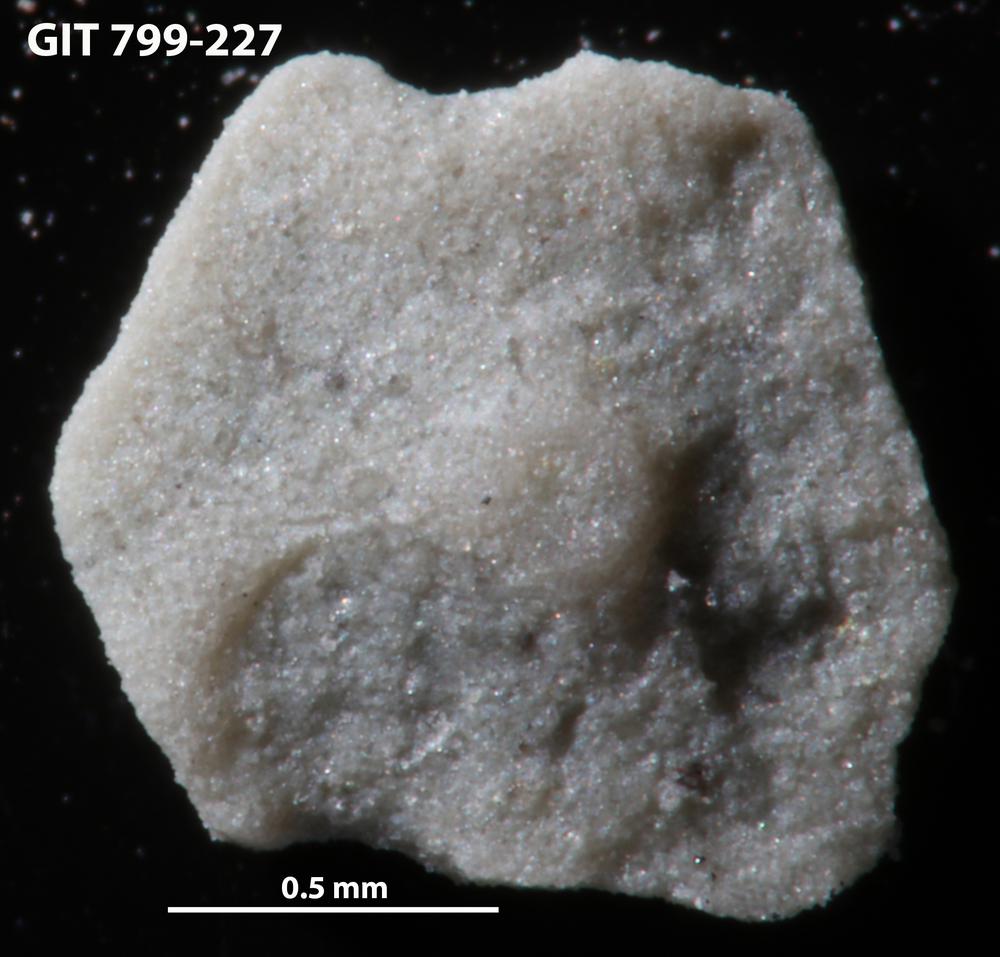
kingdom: Animalia
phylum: Echinodermata
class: Echinoidea
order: Bothriocidaroida
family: Bothriocidaridae
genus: Neobothriocidaris
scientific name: Neobothriocidaris
